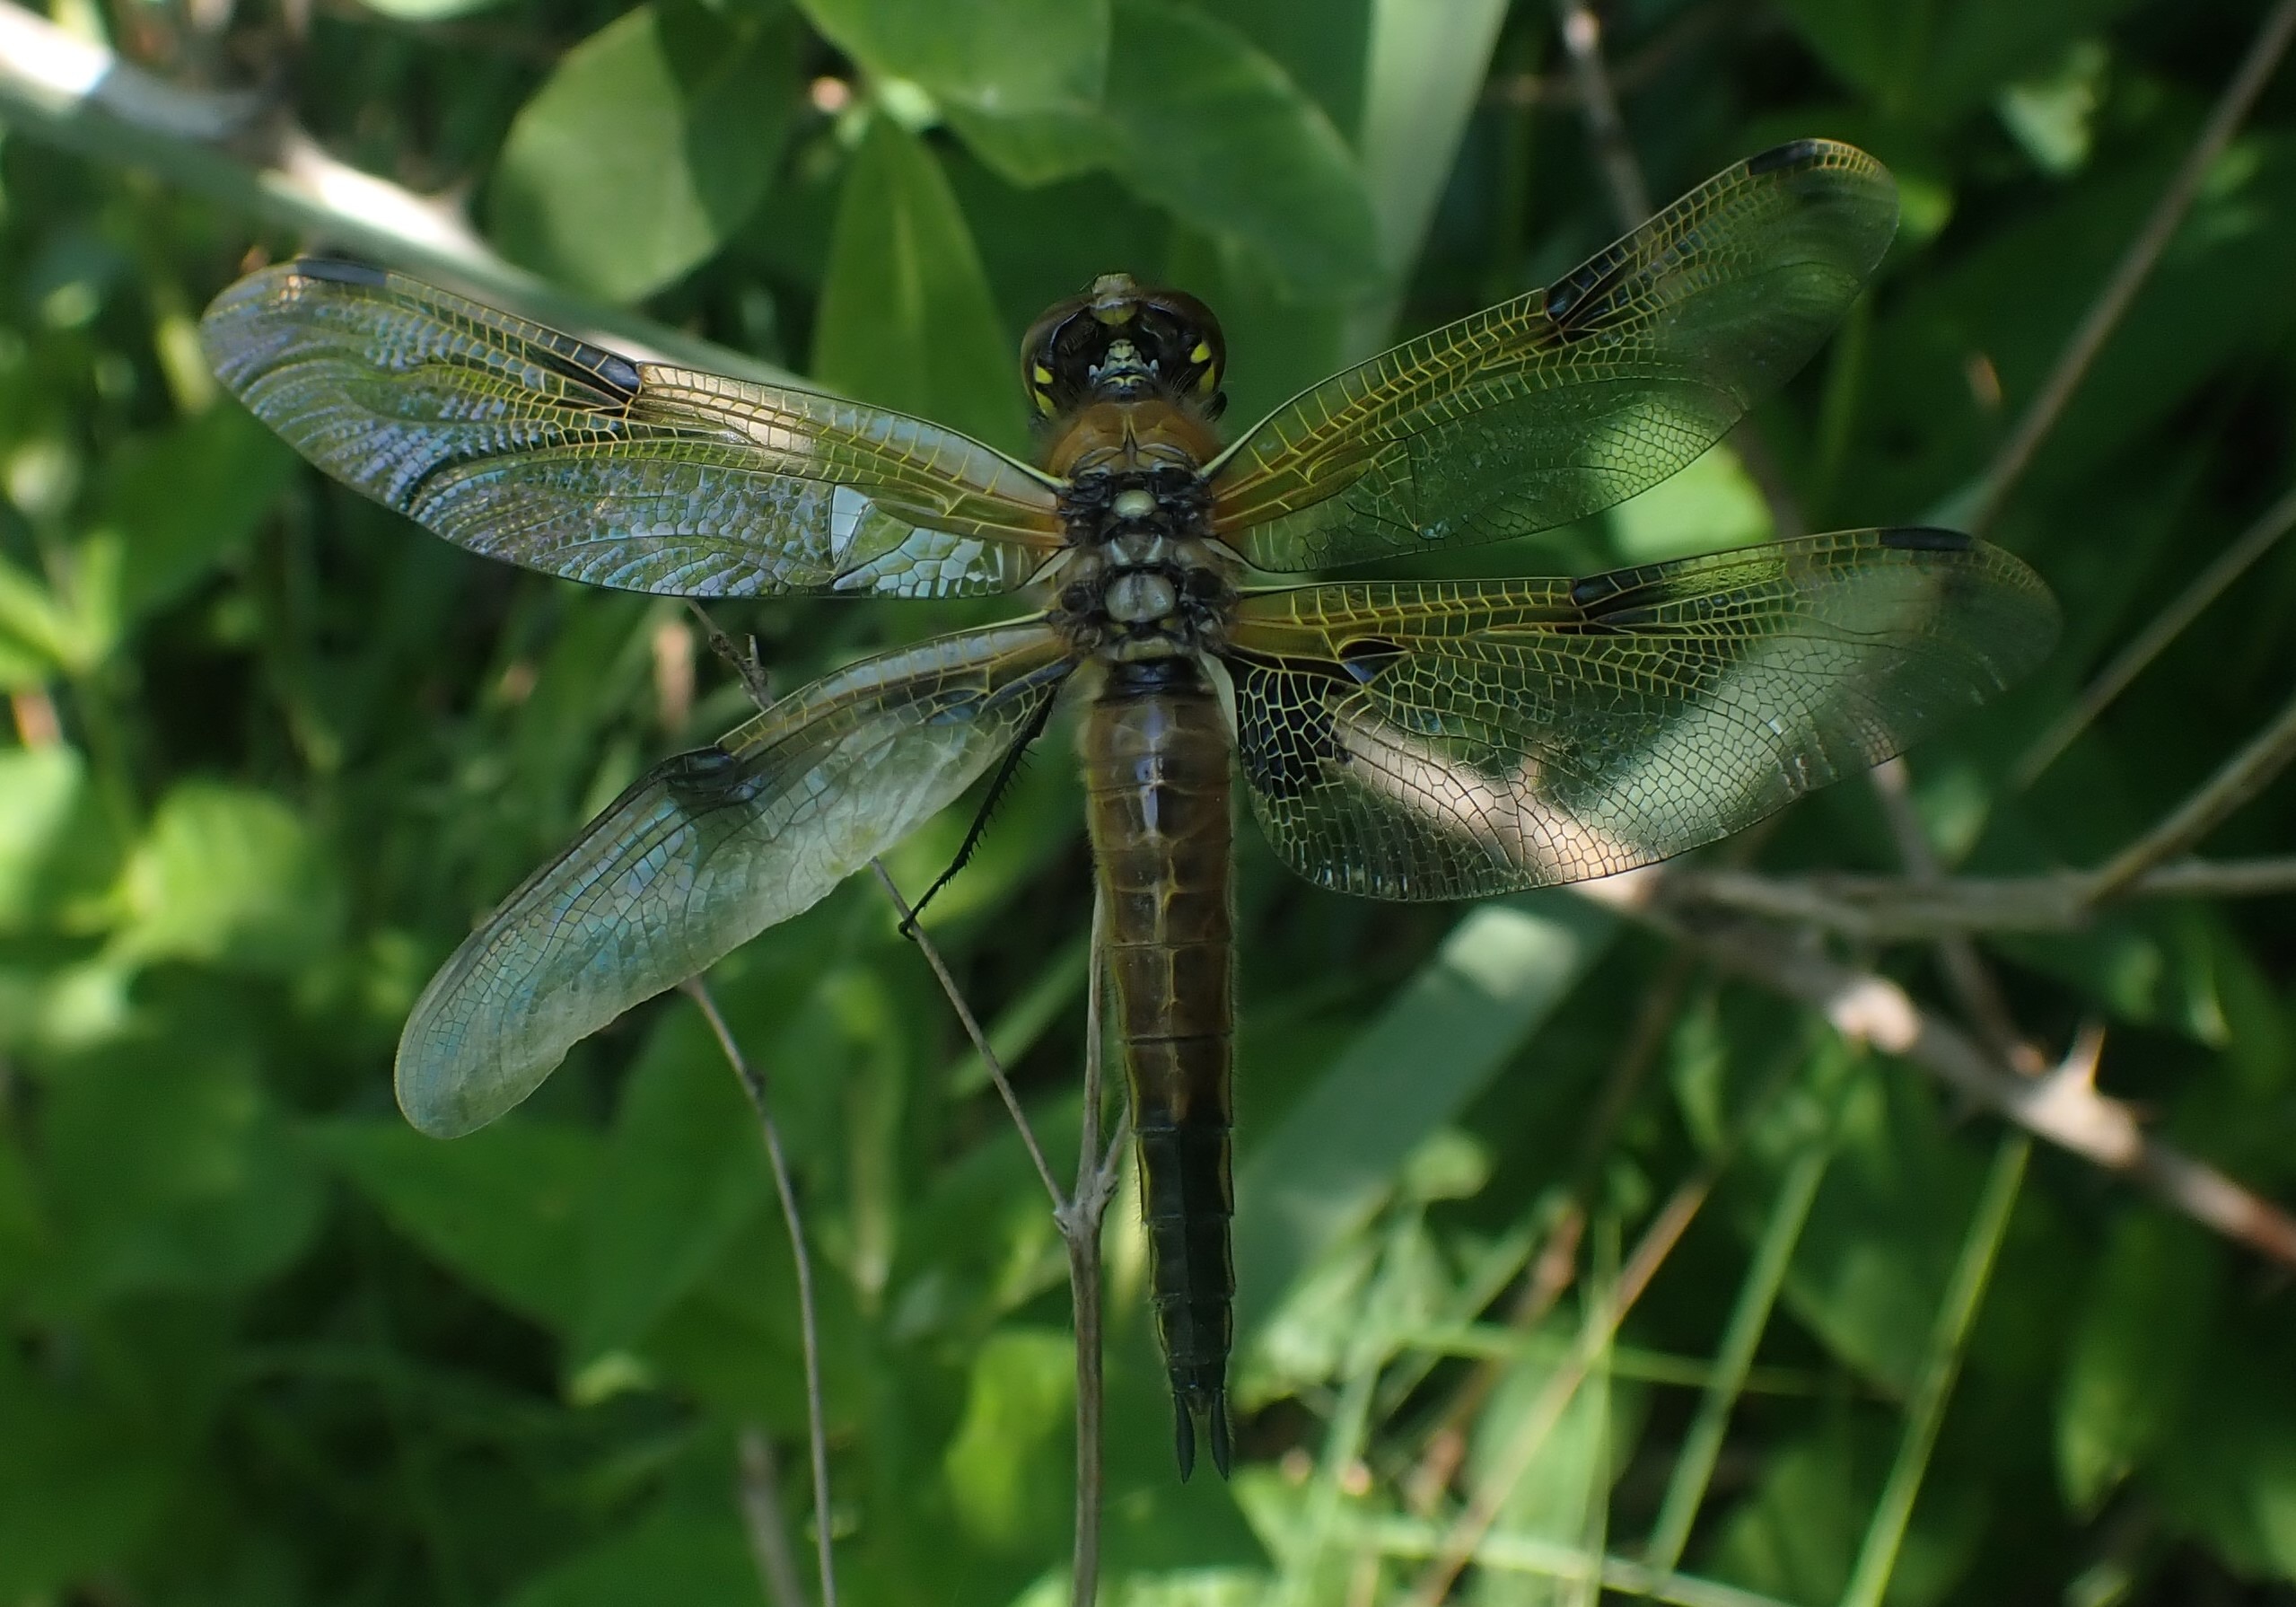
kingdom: Animalia
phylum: Arthropoda
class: Insecta
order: Odonata
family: Libellulidae
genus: Libellula
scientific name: Libellula quadrimaculata
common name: Fireplettet libel
